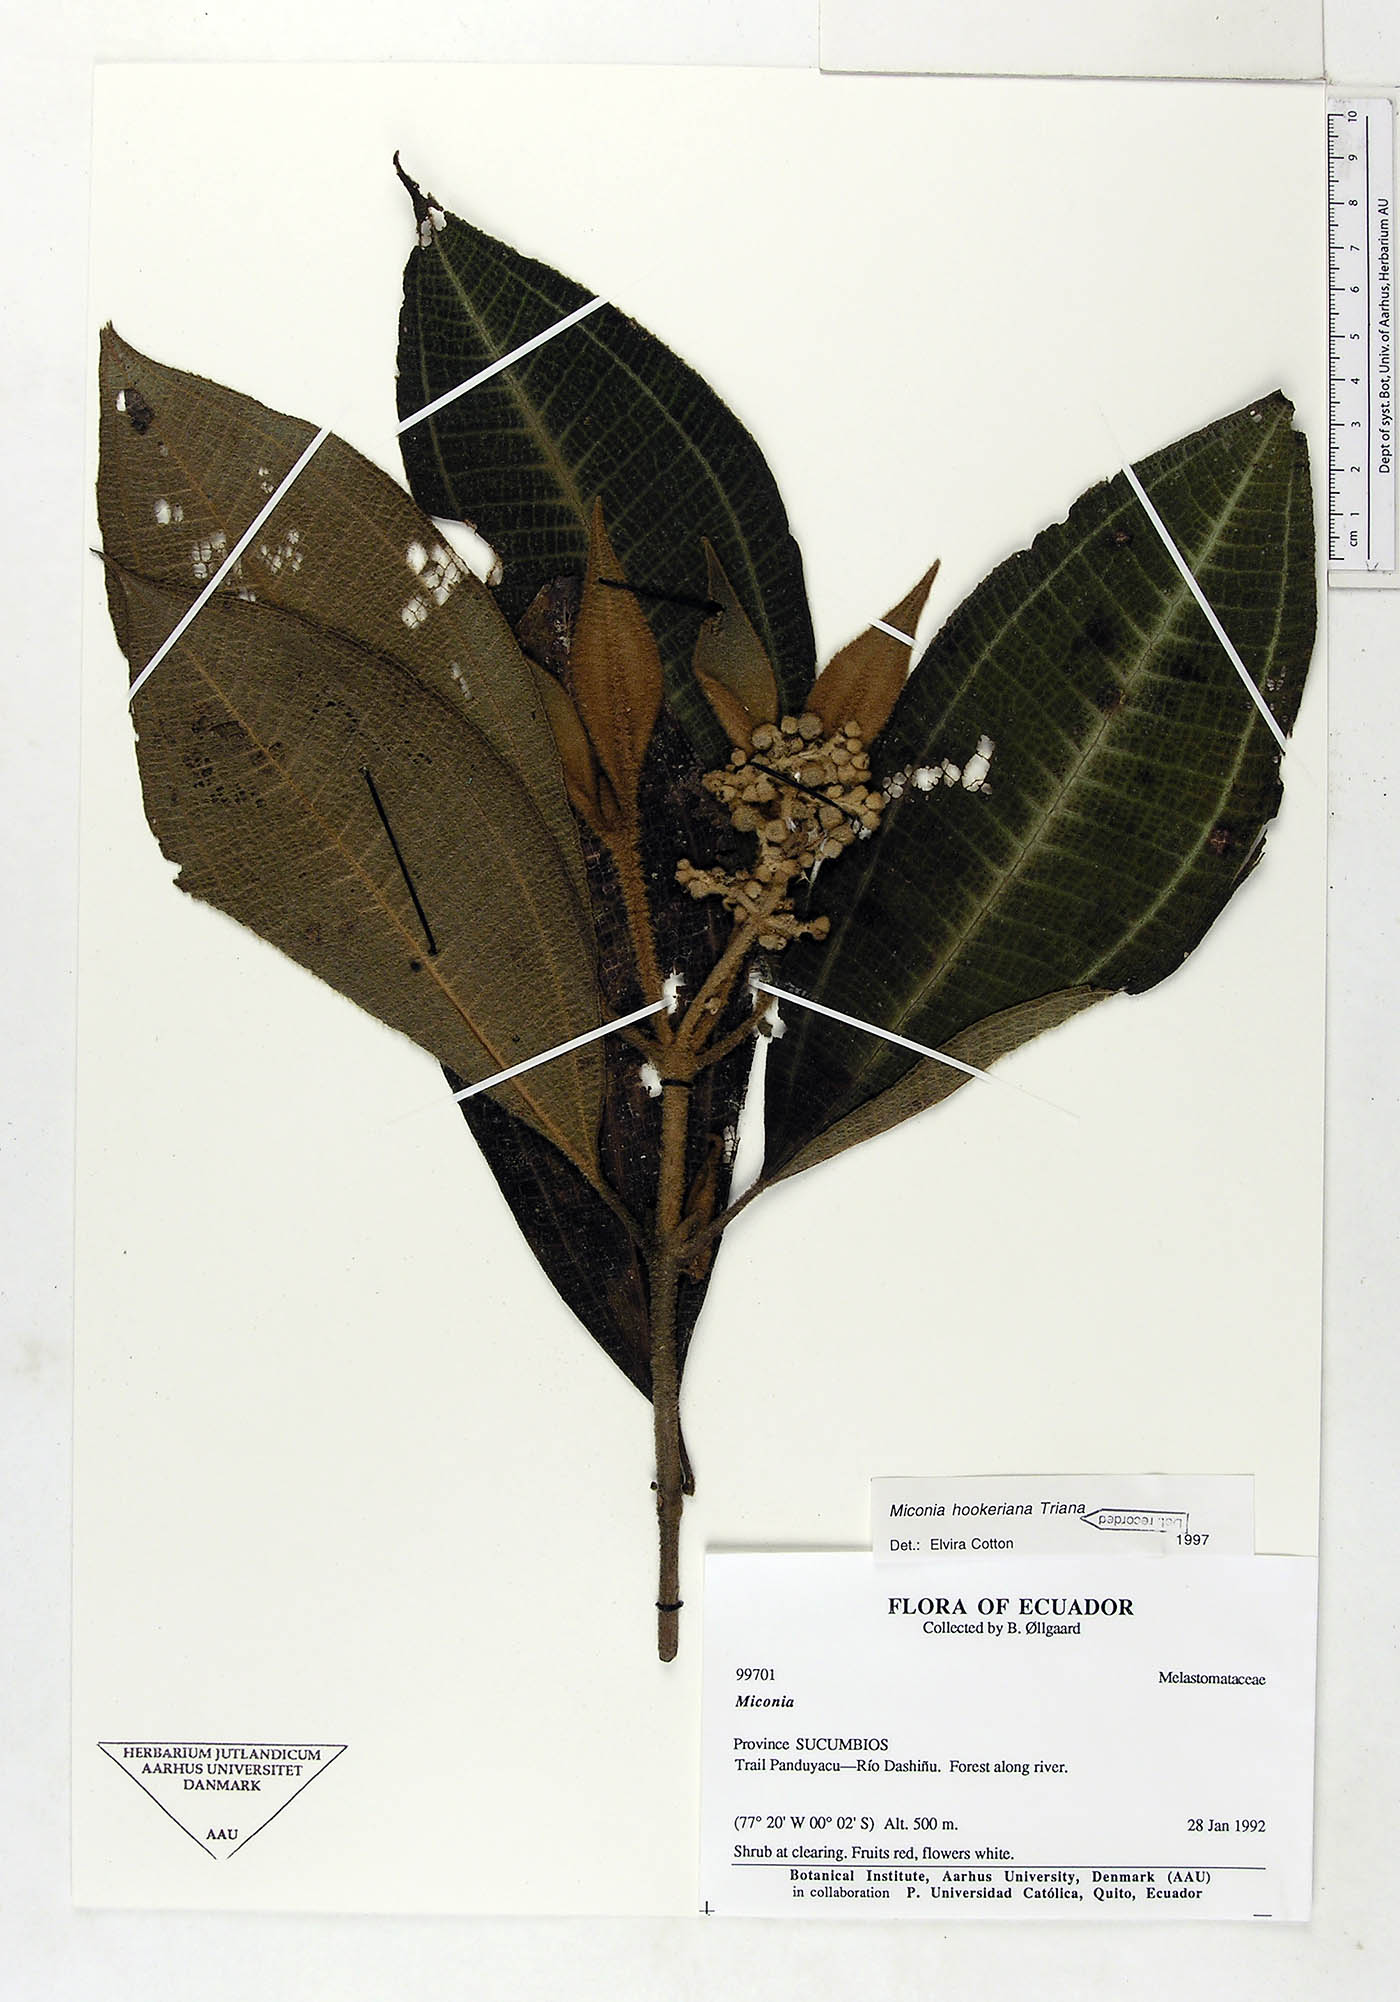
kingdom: Plantae
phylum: Tracheophyta
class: Magnoliopsida
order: Myrtales
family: Melastomataceae
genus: Miconia
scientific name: Miconia hookeriana
